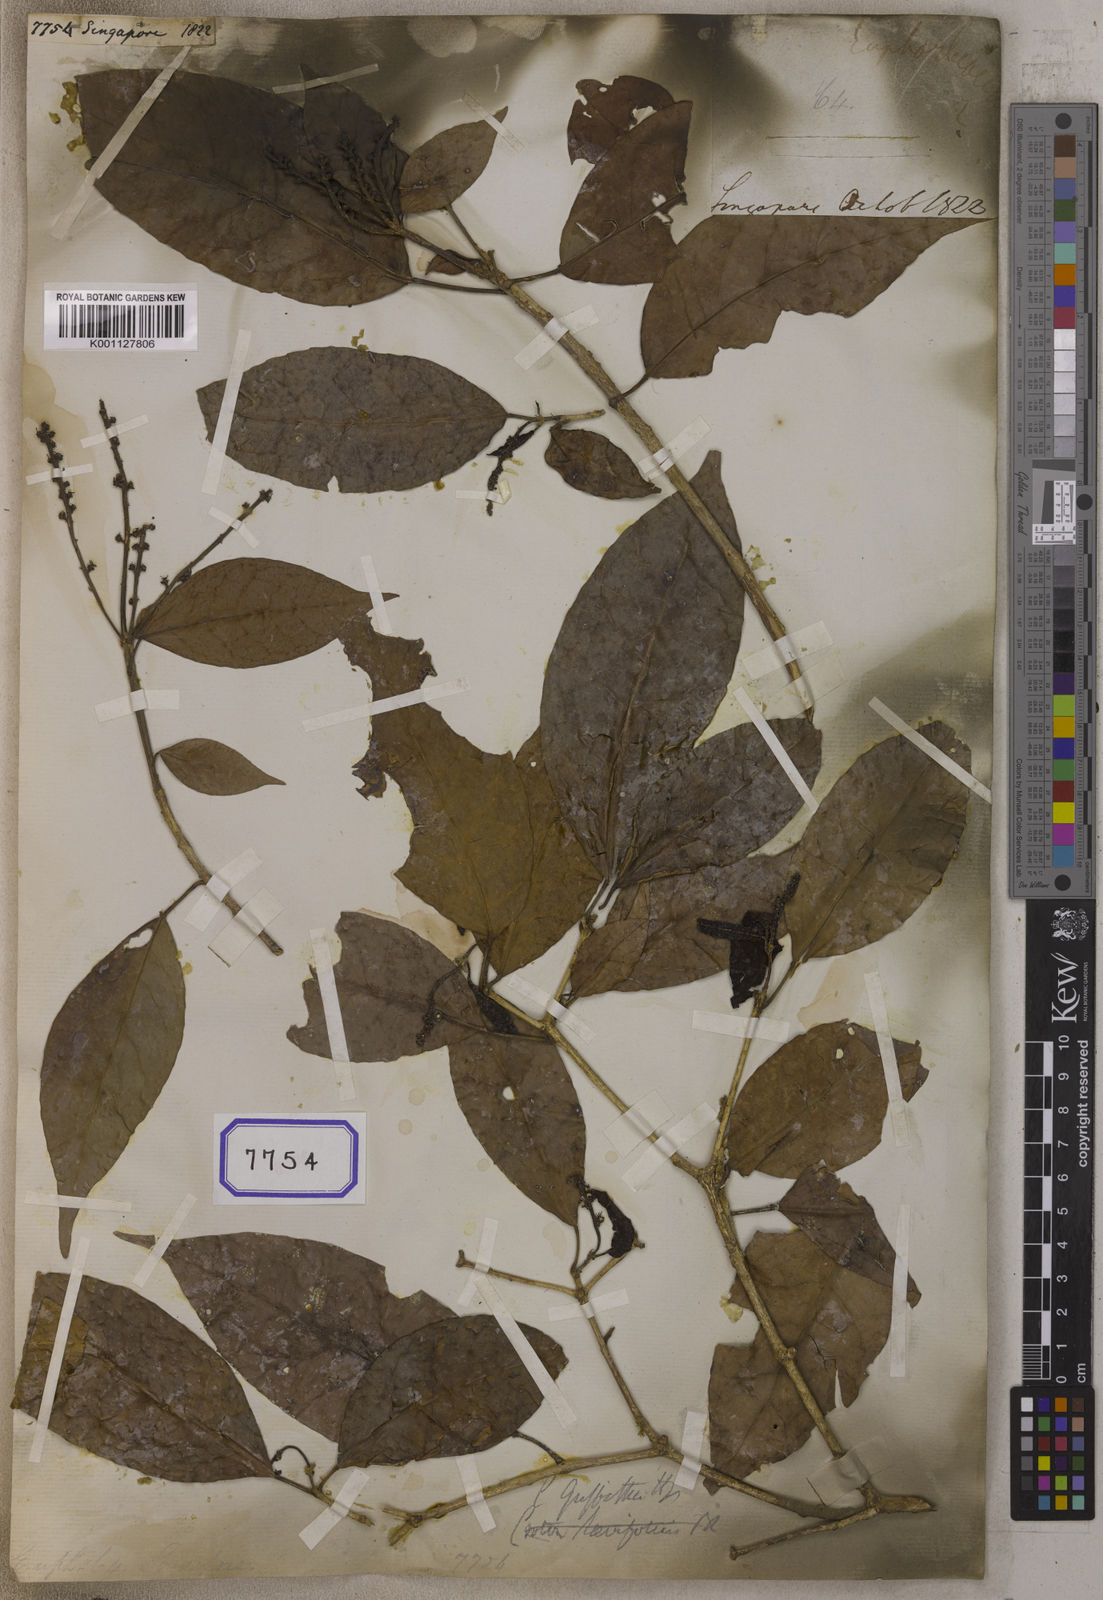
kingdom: Plantae
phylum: Tracheophyta
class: Magnoliopsida
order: Malpighiales
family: Euphorbiaceae
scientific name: Euphorbiaceae
